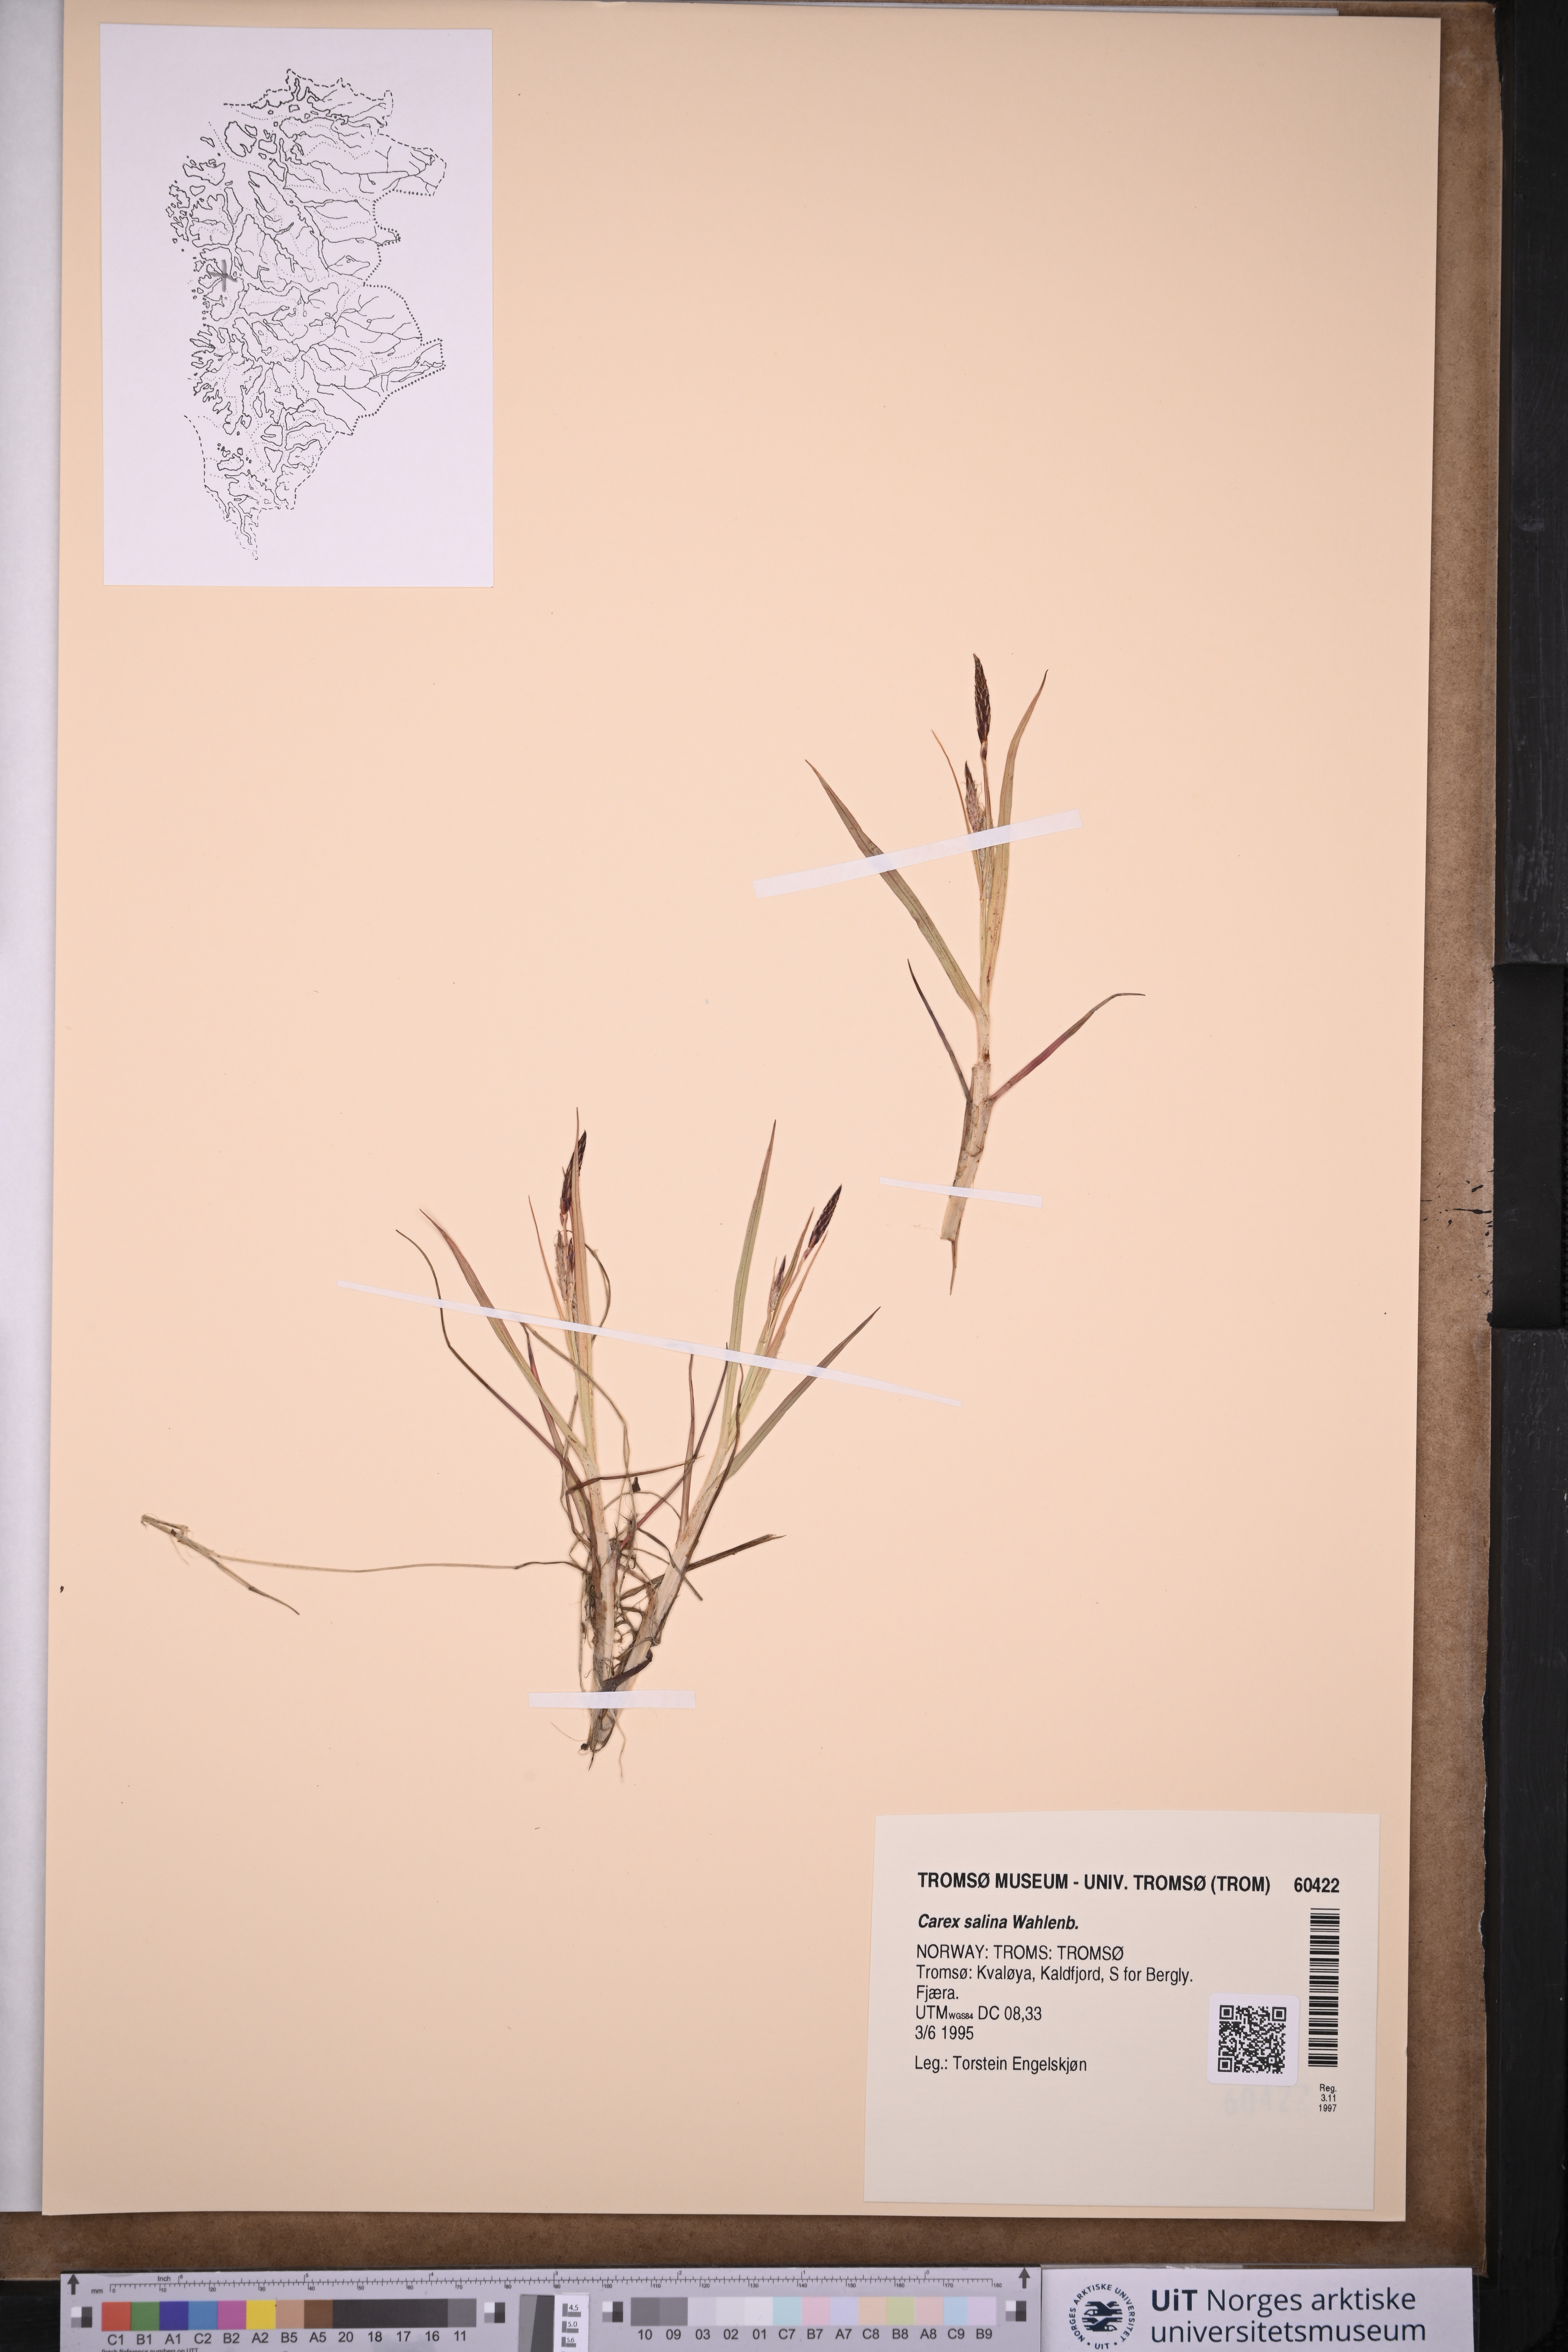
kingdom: Plantae
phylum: Tracheophyta
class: Liliopsida
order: Poales
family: Cyperaceae
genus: Carex
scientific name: Carex salina
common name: Saltmarsh sedge
